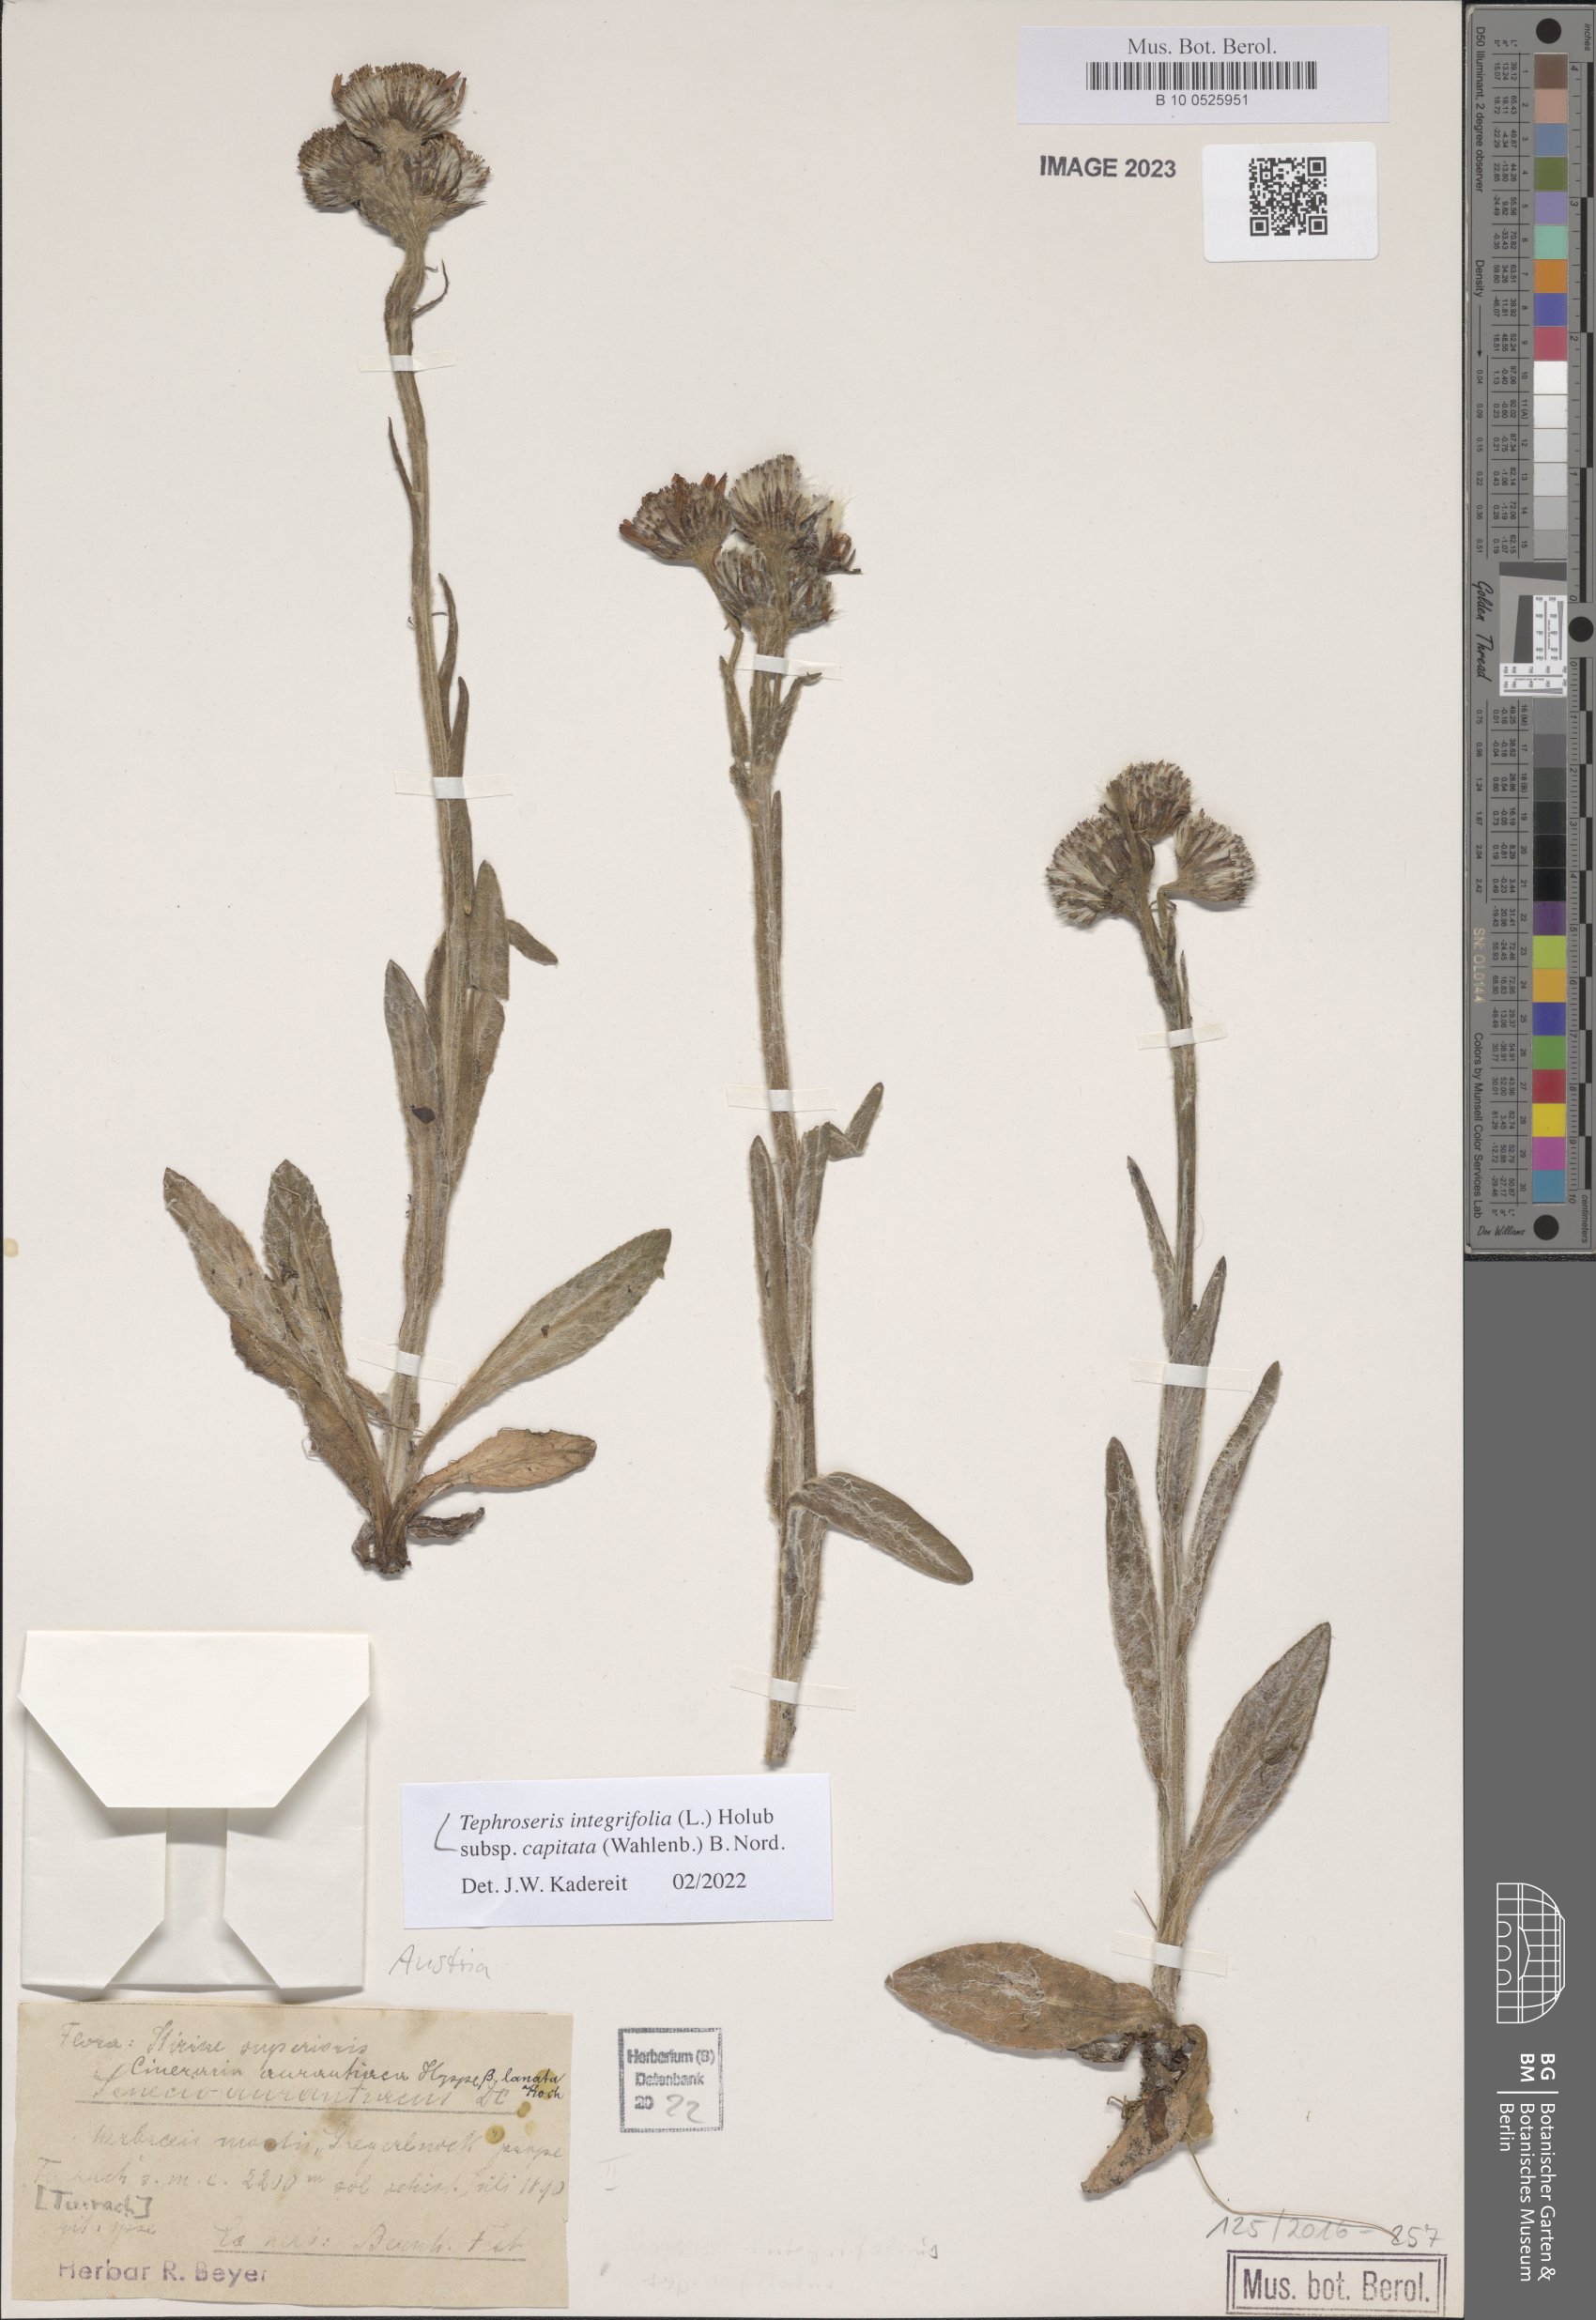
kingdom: Plantae
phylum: Tracheophyta
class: Magnoliopsida
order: Asterales
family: Asteraceae
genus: Tephroseris
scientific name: Tephroseris integrifolia
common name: Field fleawort
